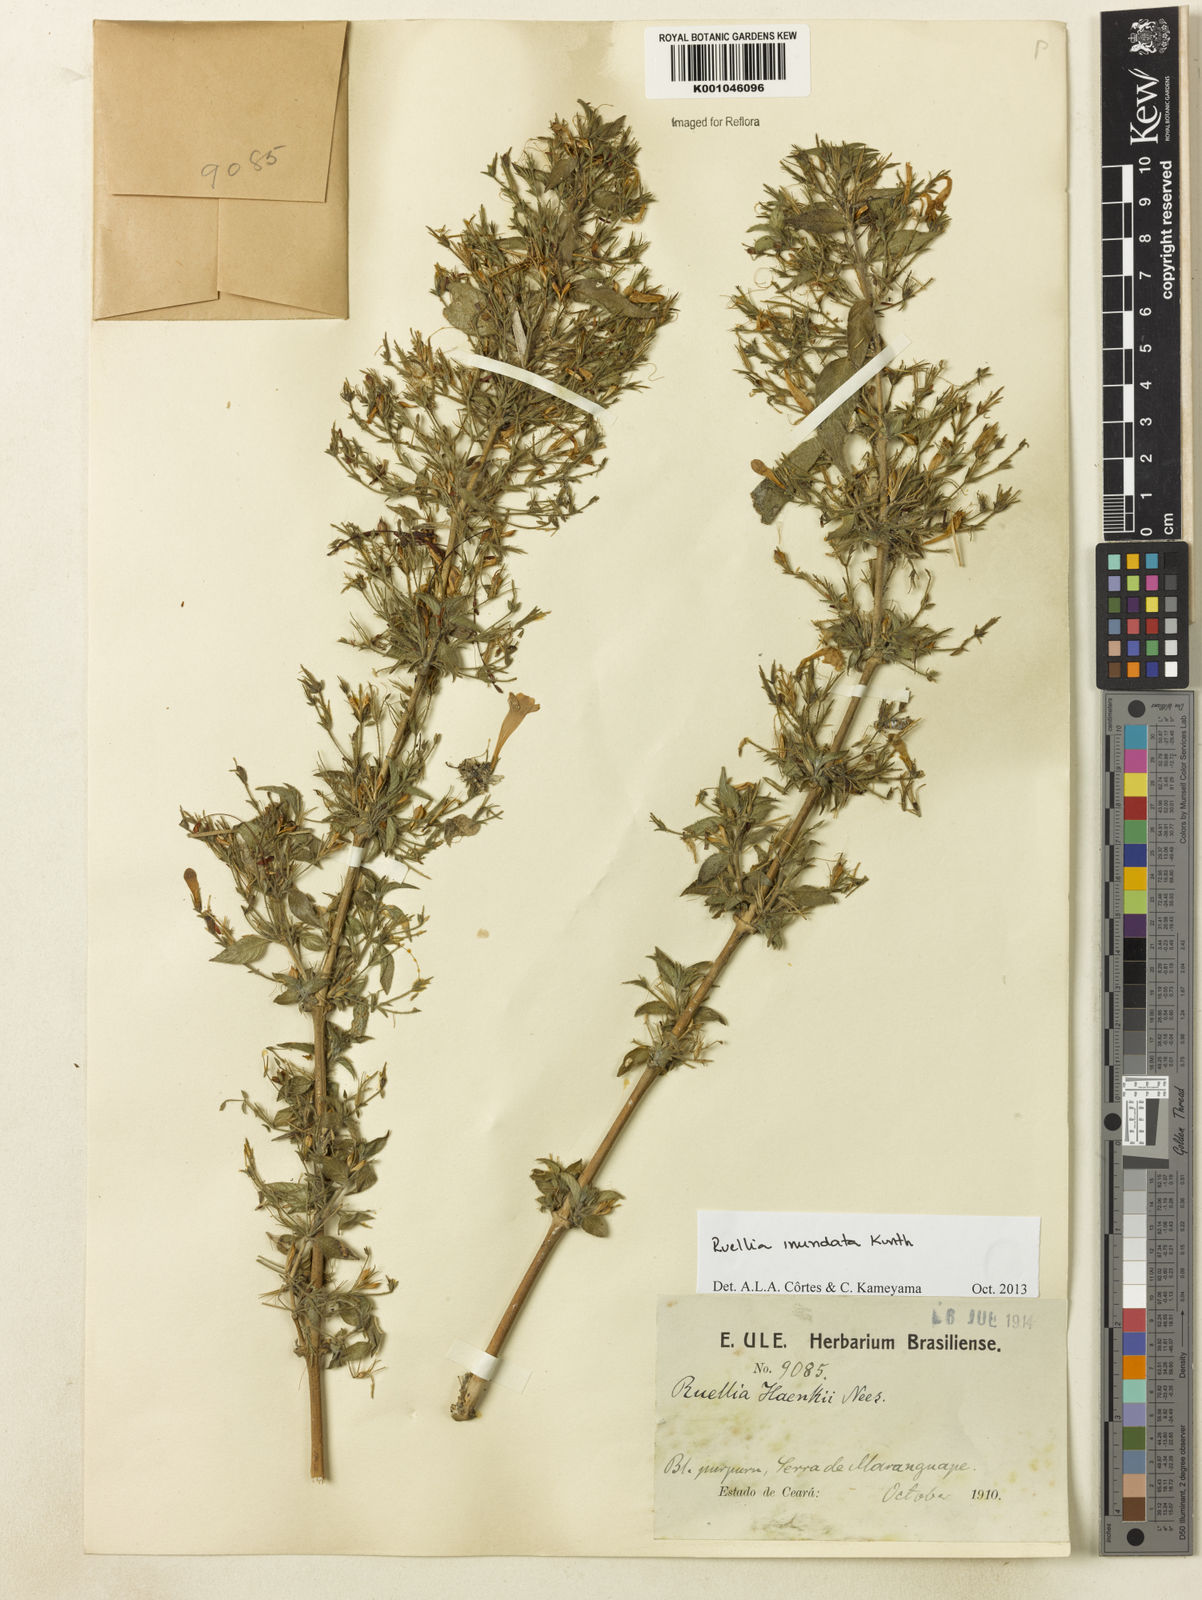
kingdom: Plantae
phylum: Tracheophyta
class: Magnoliopsida
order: Lamiales
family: Acanthaceae
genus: Ruellia
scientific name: Ruellia inundata
